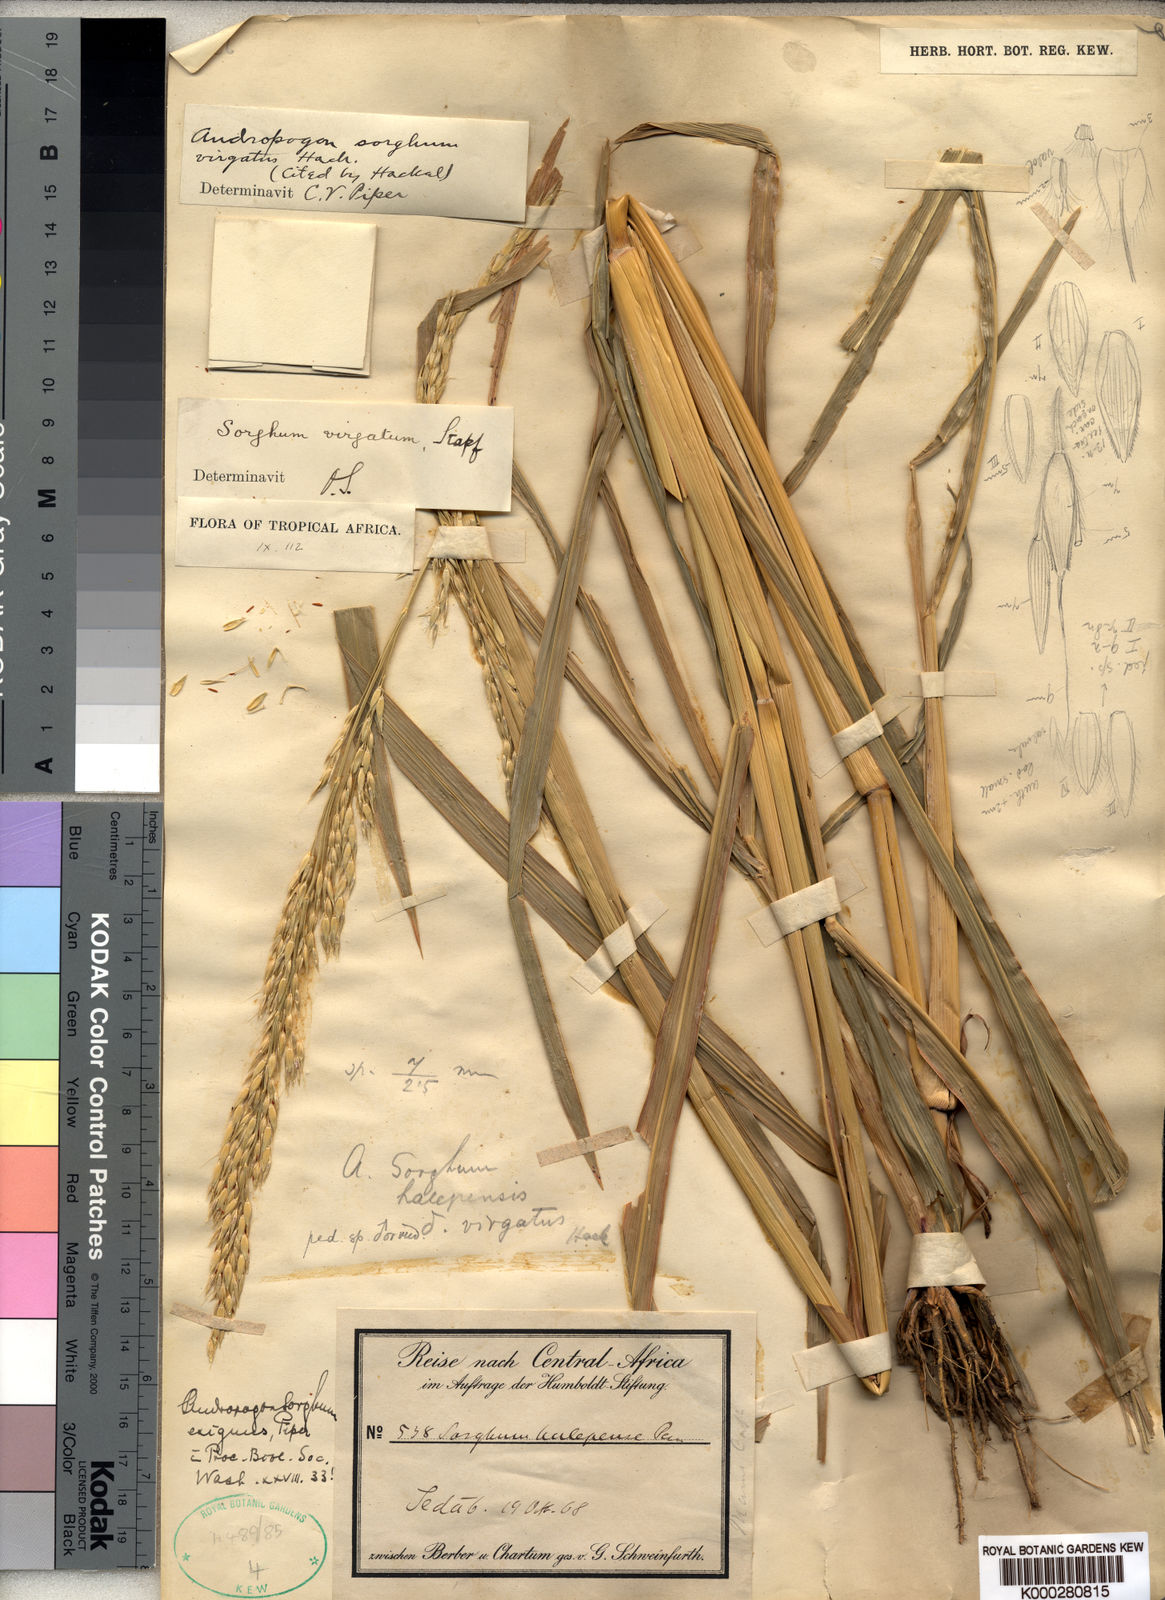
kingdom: Plantae
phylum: Tracheophyta
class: Liliopsida
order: Poales
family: Poaceae
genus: Sorghum
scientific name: Sorghum virgatum
